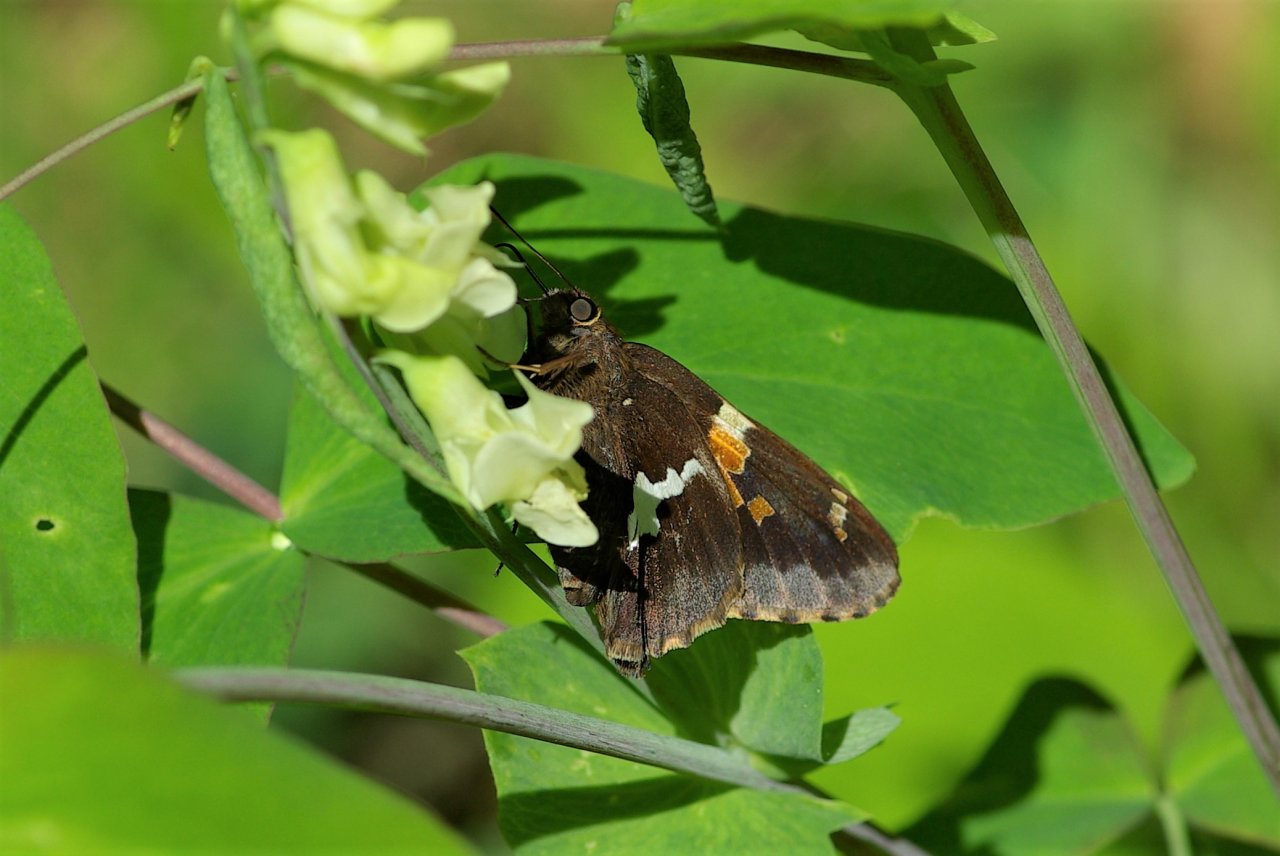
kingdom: Animalia
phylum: Arthropoda
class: Insecta
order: Lepidoptera
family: Hesperiidae
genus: Epargyreus
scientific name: Epargyreus clarus
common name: Silver-spotted Skipper
